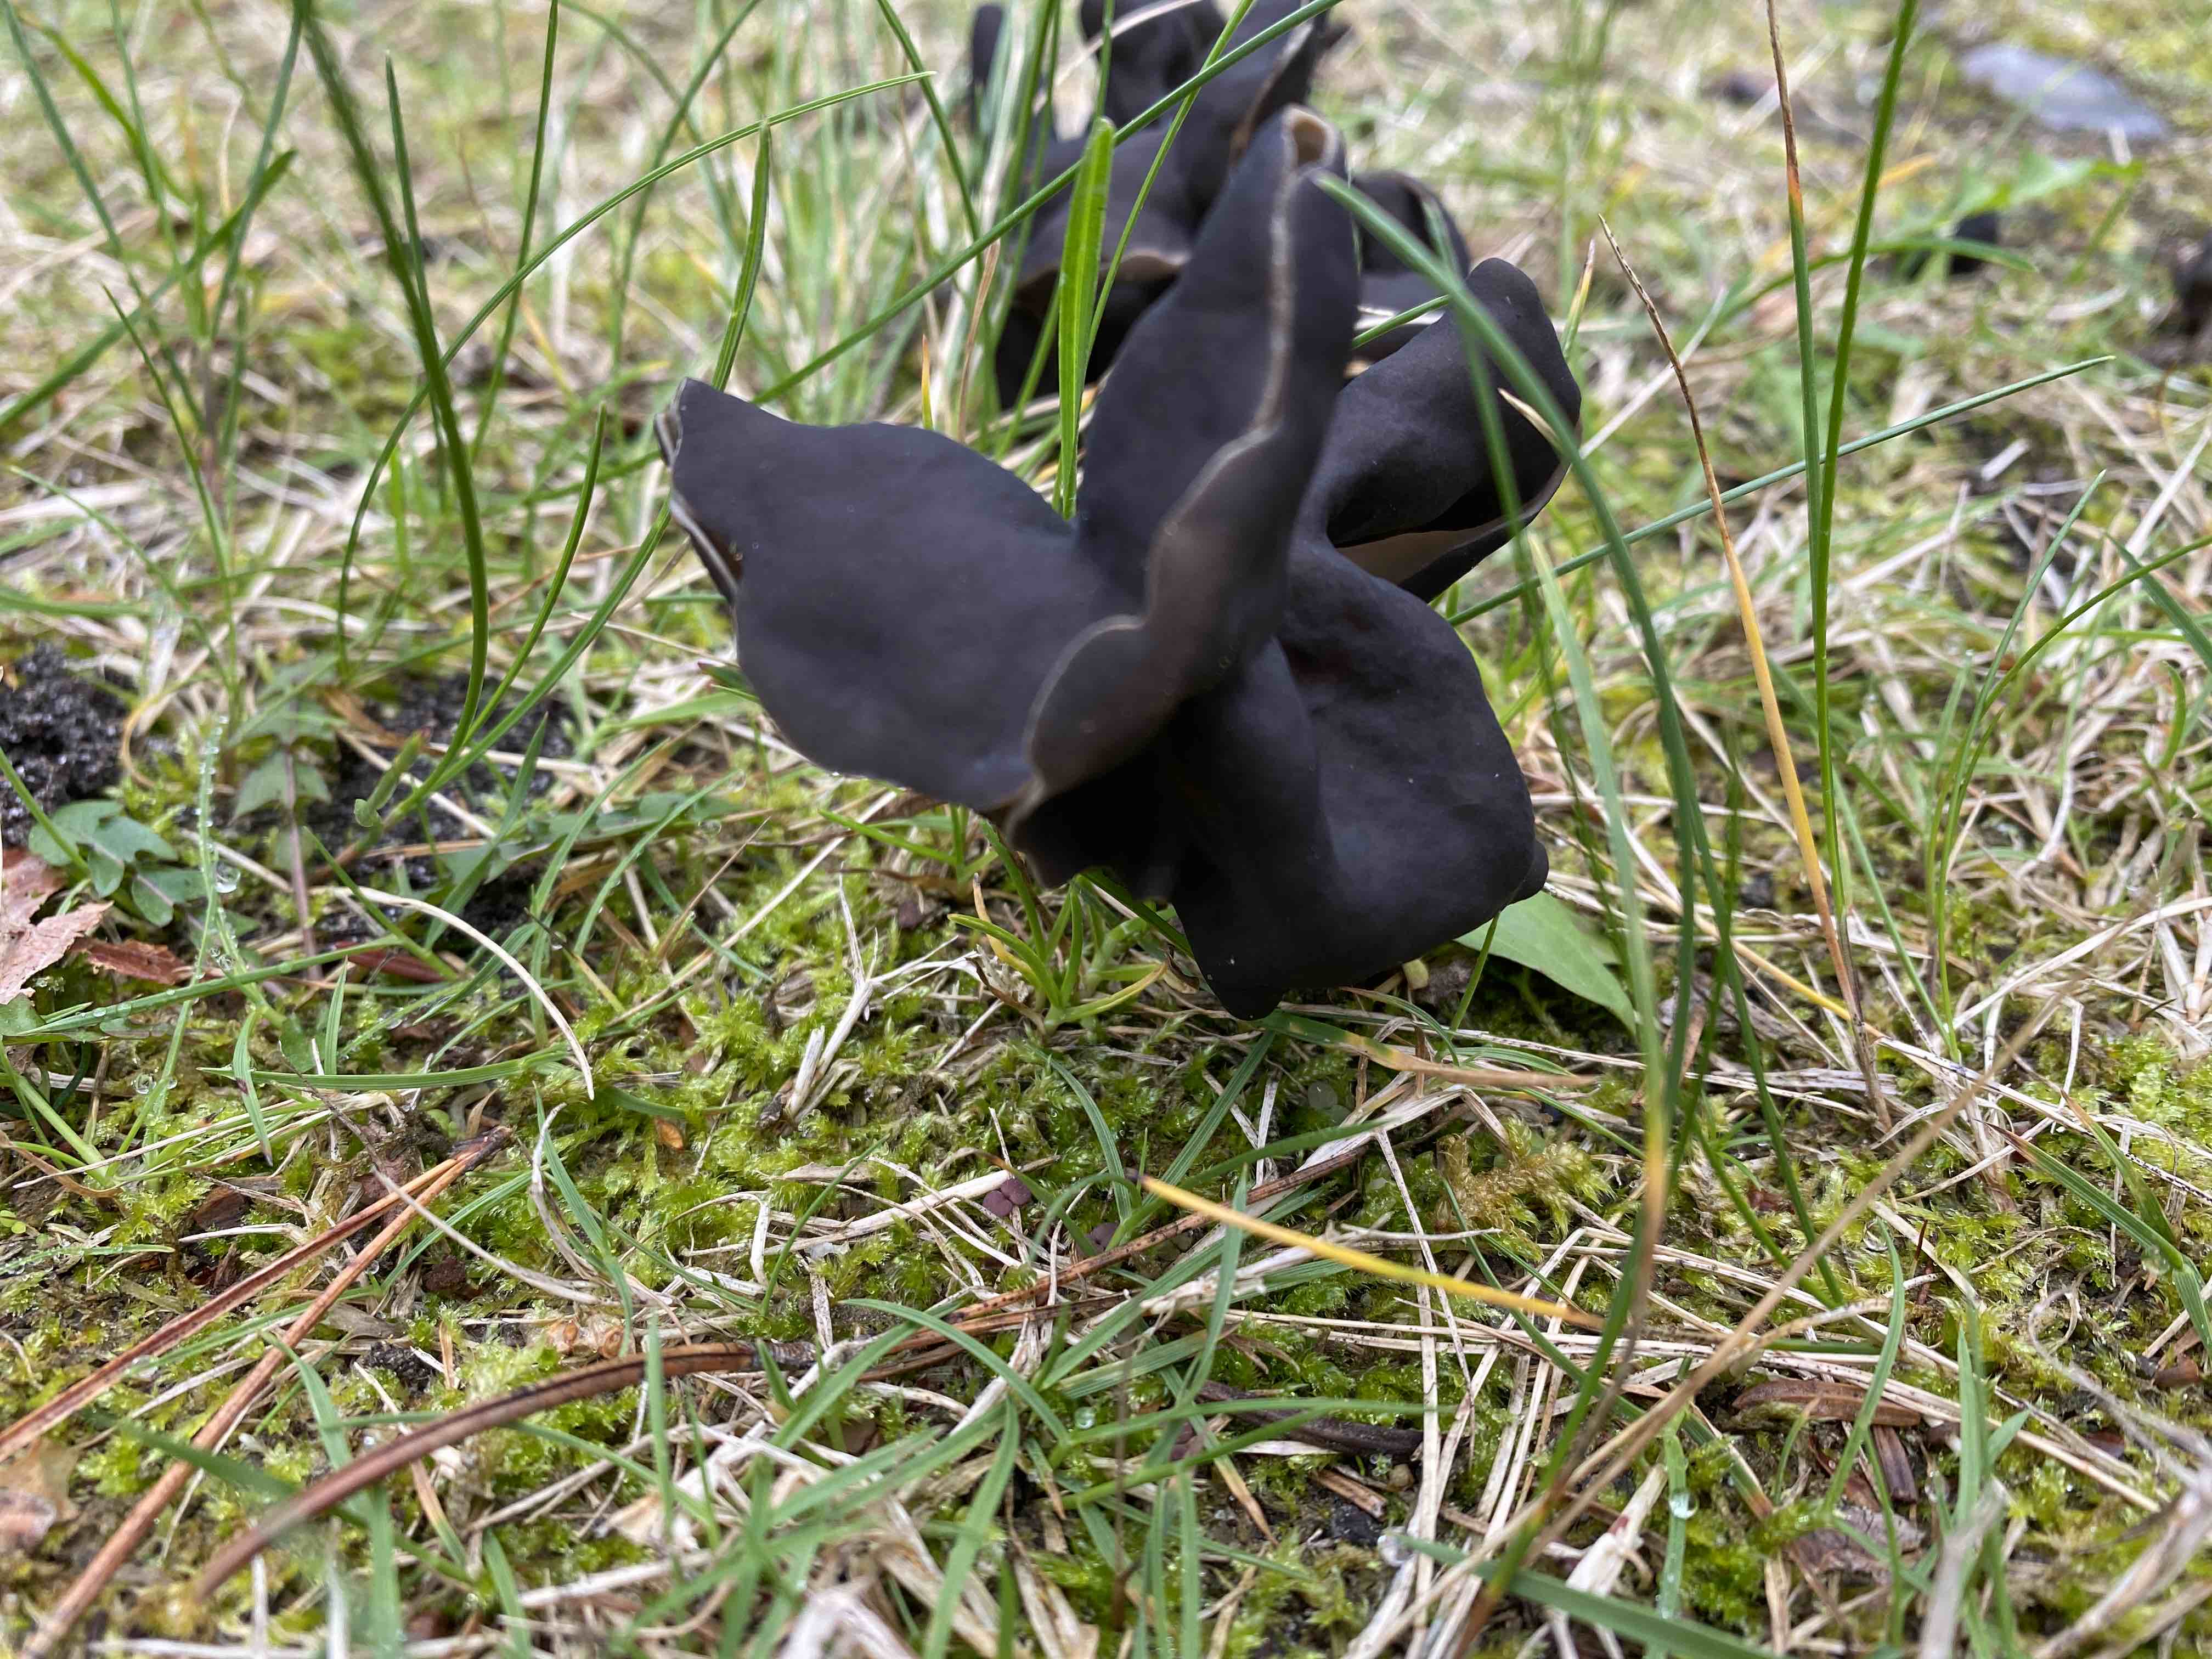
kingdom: Fungi
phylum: Ascomycota
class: Pezizomycetes
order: Pezizales
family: Helvellaceae
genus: Helvella
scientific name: Helvella lacunosa
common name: grubet foldhat
